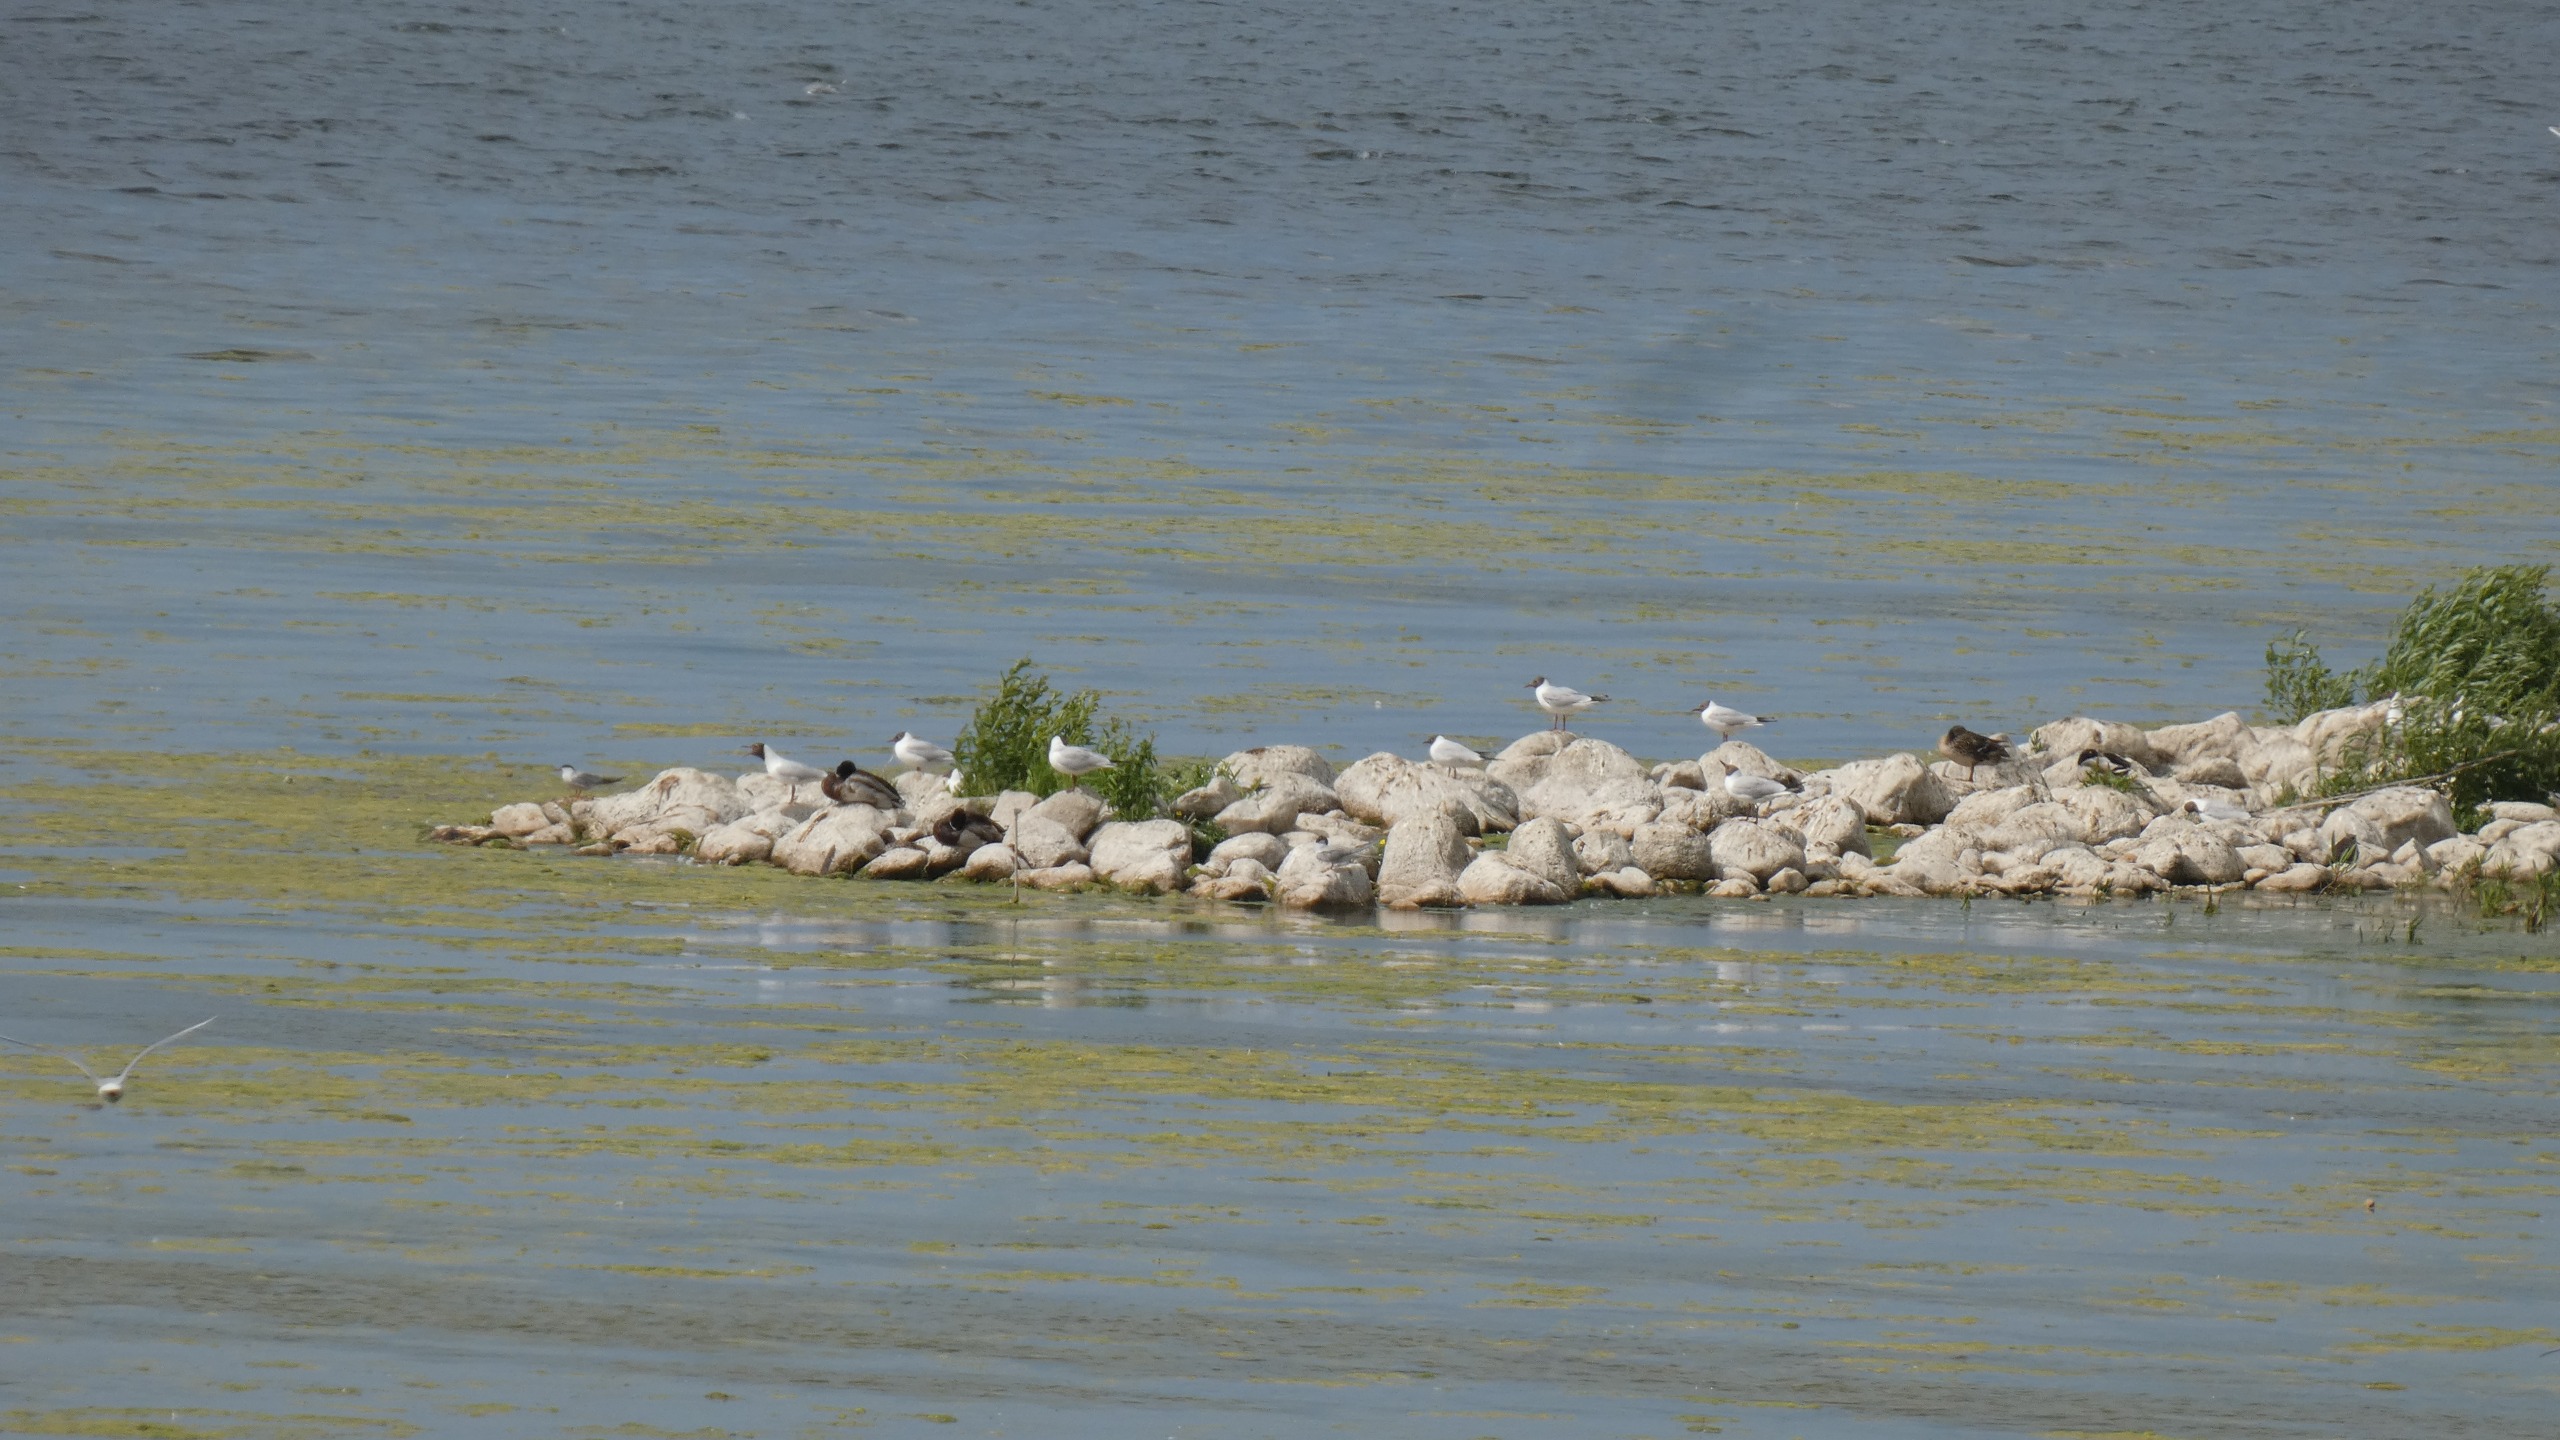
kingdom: Animalia
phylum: Chordata
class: Aves
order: Anseriformes
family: Anatidae
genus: Anas
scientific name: Anas platyrhynchos
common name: Gråand
